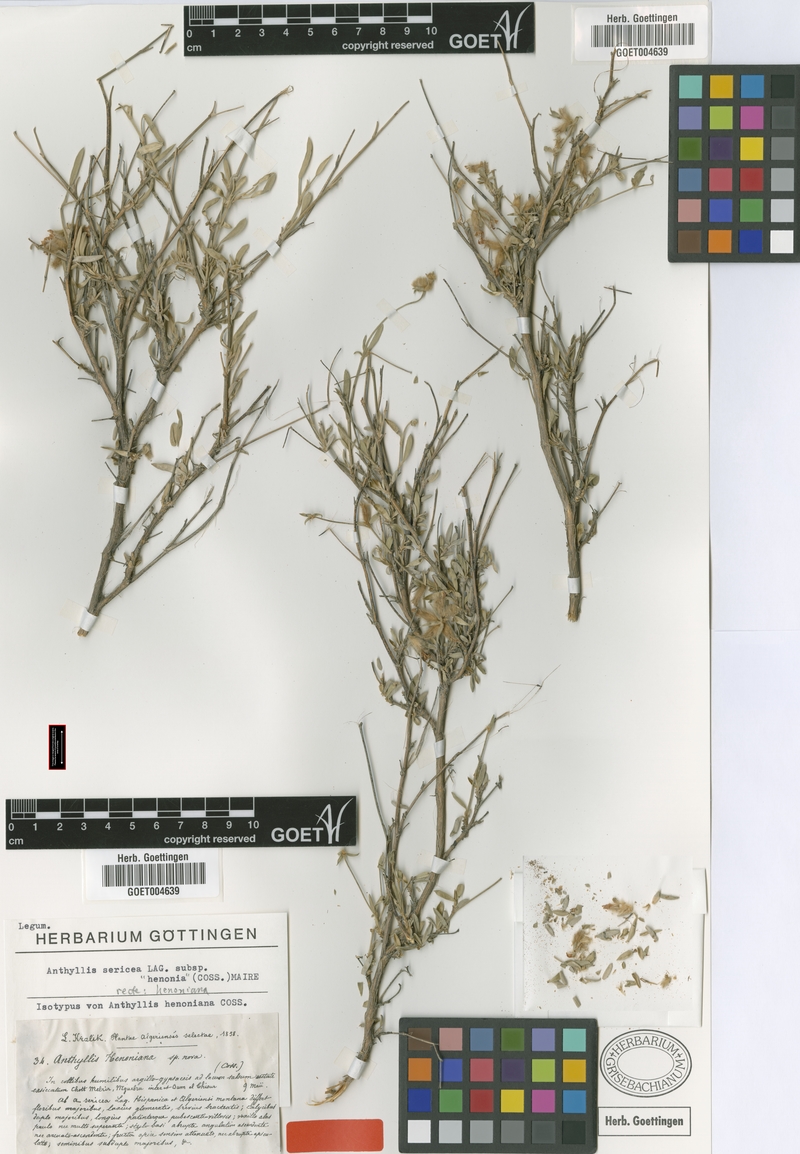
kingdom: Plantae
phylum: Tracheophyta
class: Magnoliopsida
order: Fabales
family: Fabaceae
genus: Anthyllis
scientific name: Anthyllis subsimplex
